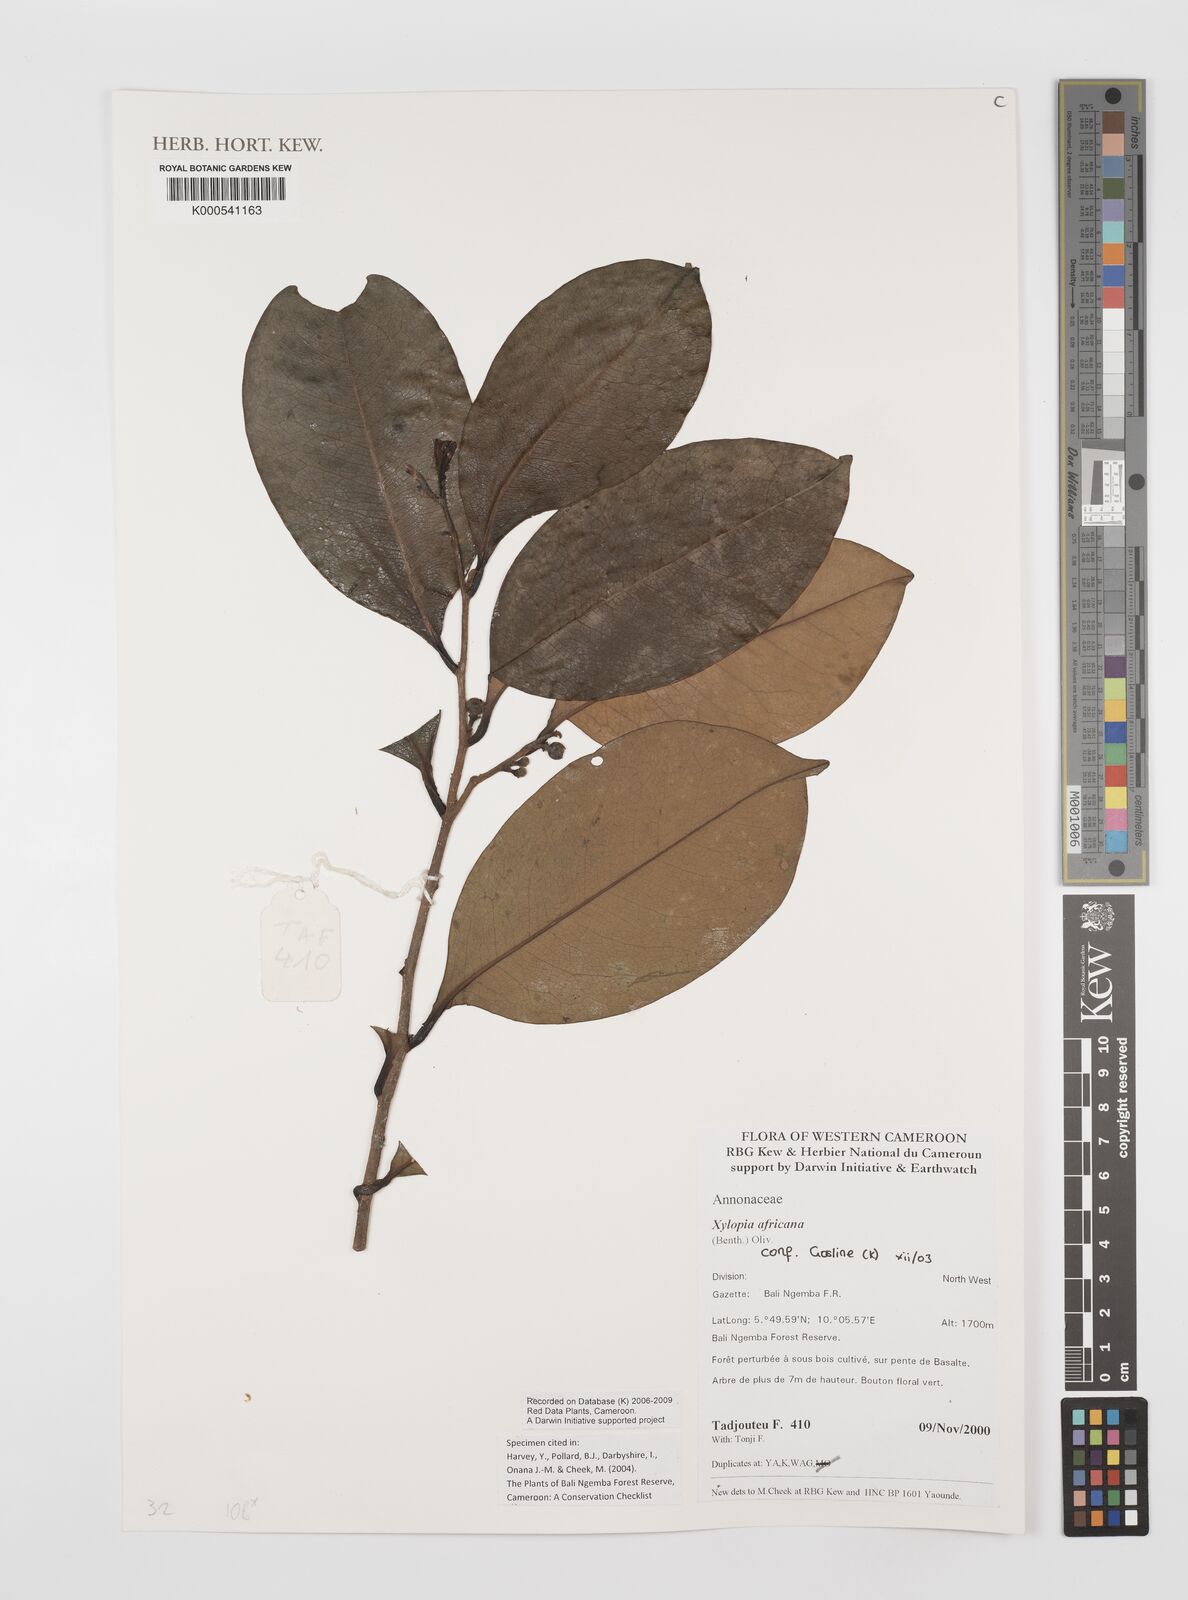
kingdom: Plantae
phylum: Tracheophyta
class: Magnoliopsida
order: Magnoliales
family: Annonaceae
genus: Xylopia
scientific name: Xylopia africana
